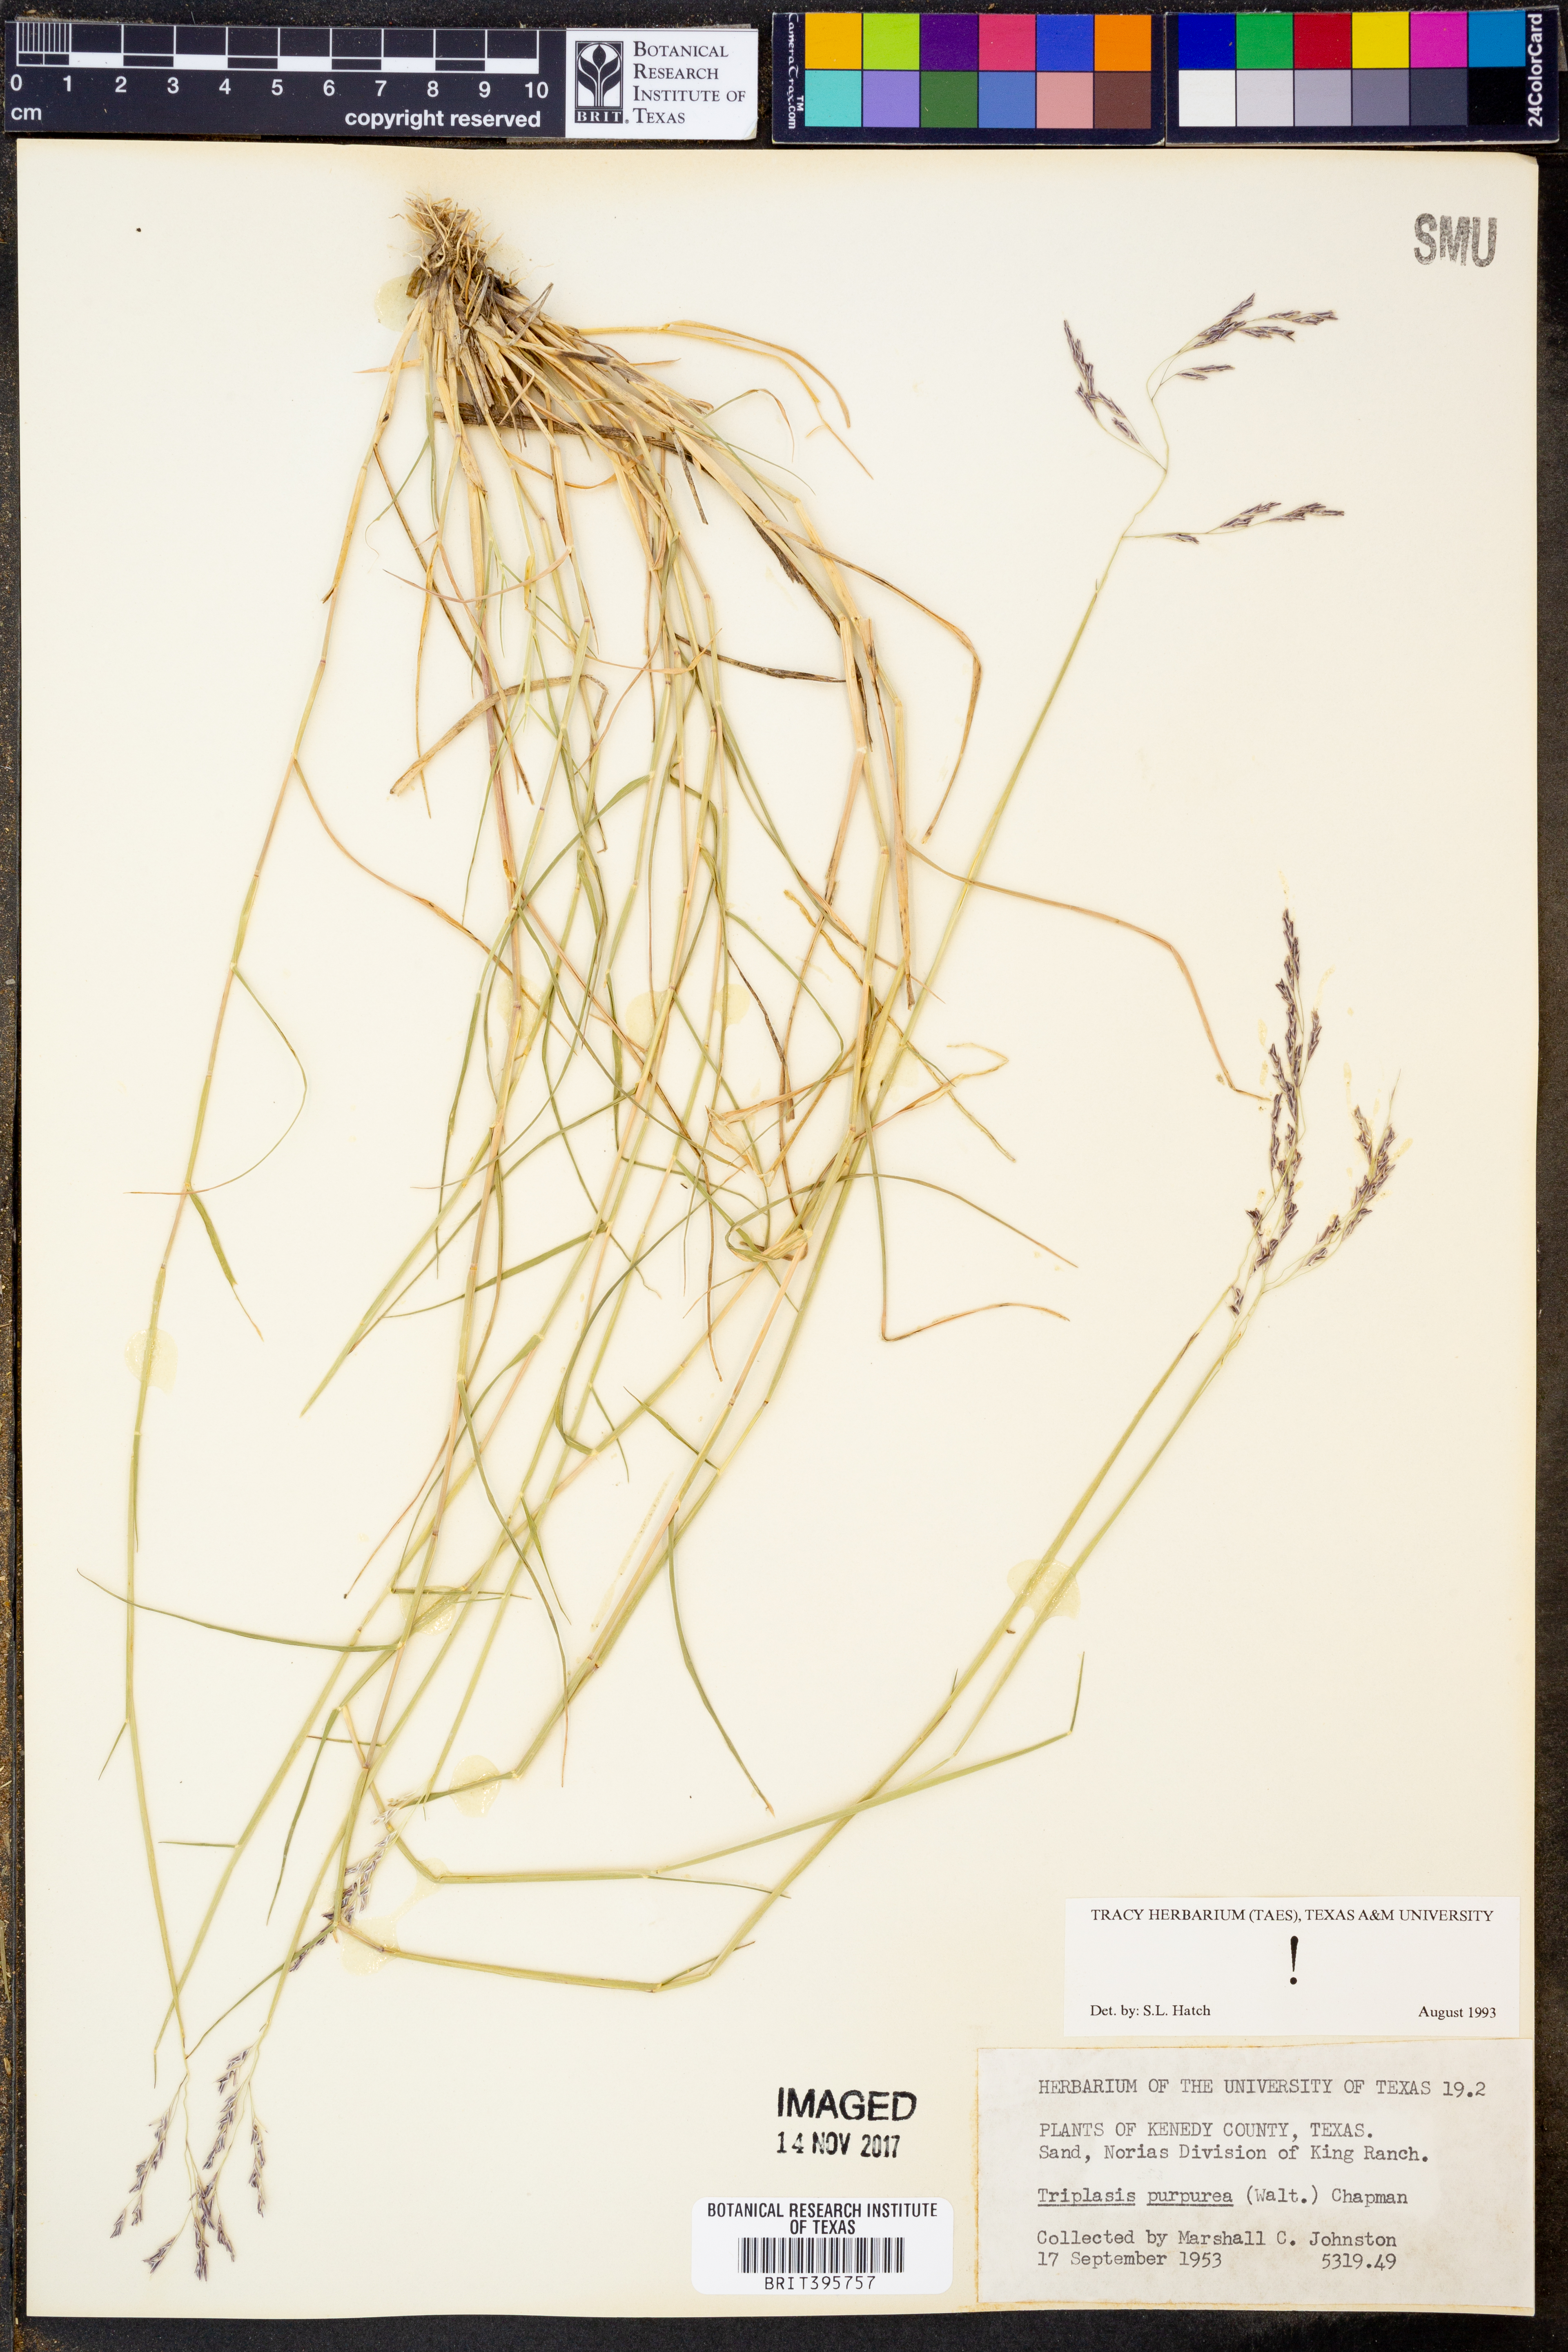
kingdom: Plantae
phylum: Tracheophyta
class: Liliopsida
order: Poales
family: Poaceae
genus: Triplasis
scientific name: Triplasis purpurea
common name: Purple sand grass
